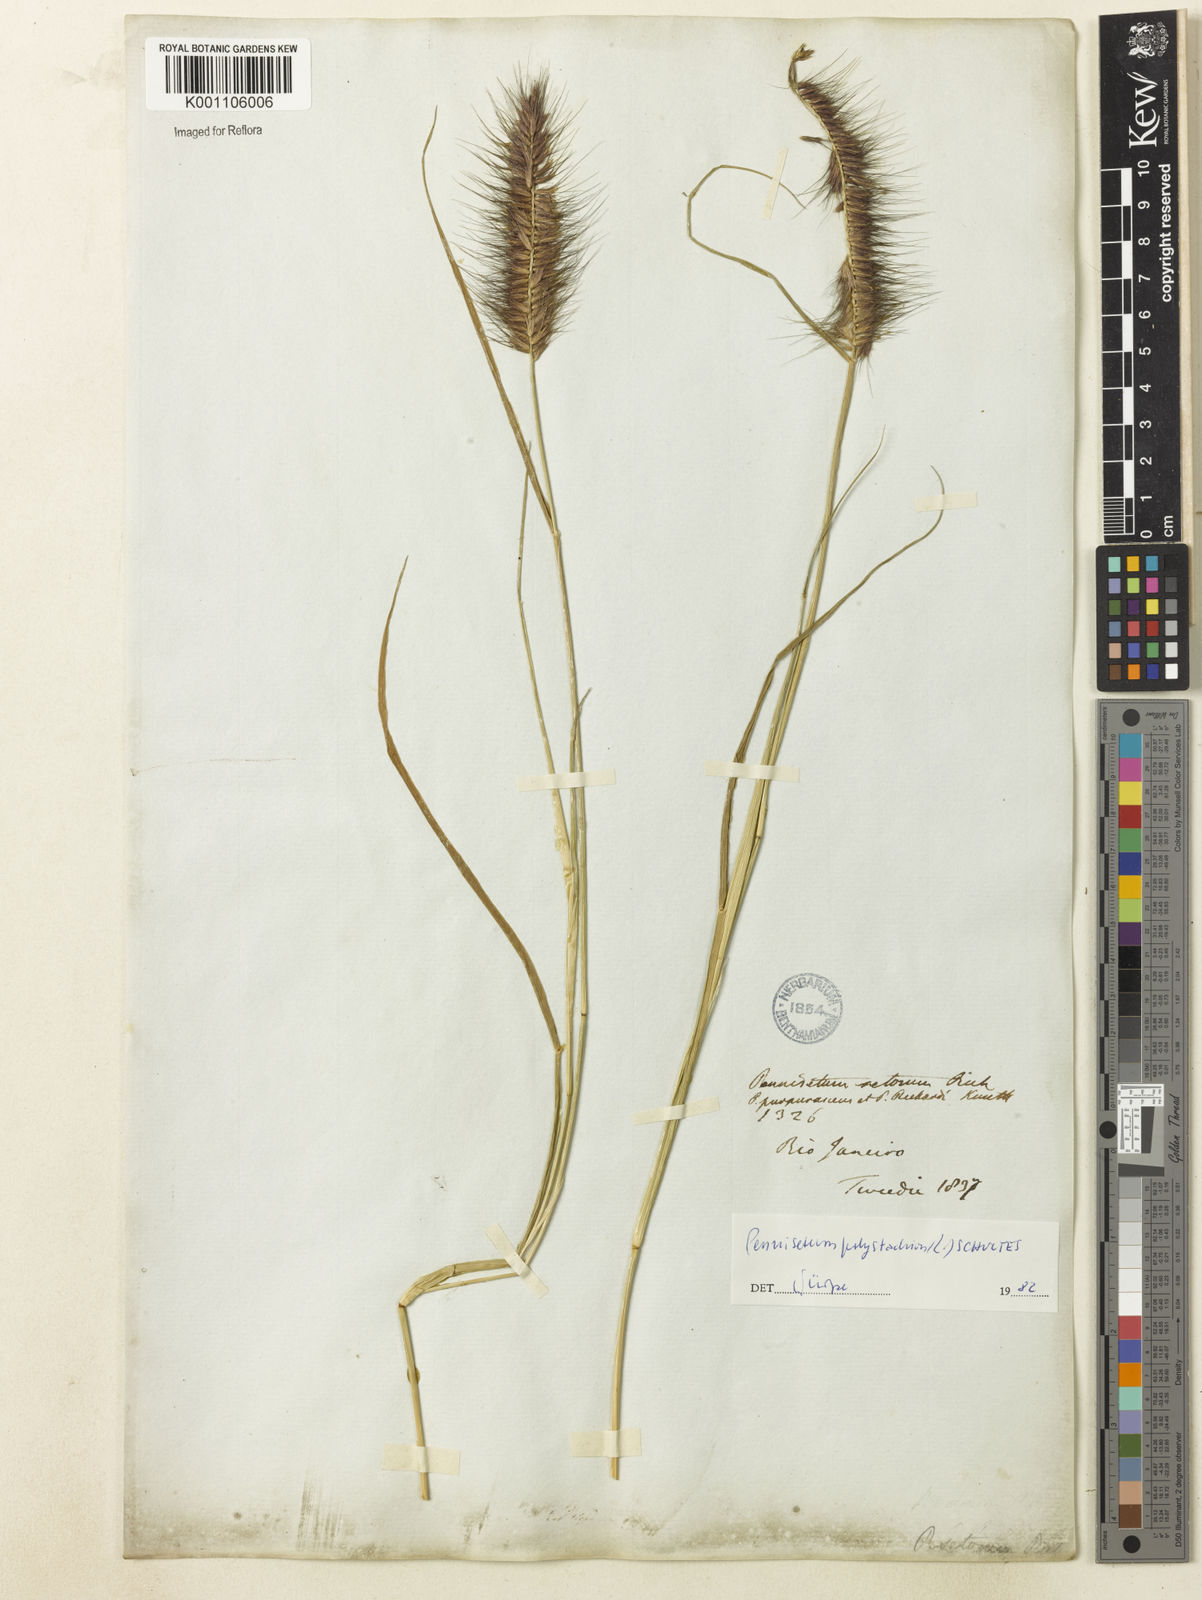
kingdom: Plantae
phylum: Tracheophyta
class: Liliopsida
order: Poales
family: Poaceae
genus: Setaria
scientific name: Setaria parviflora
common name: Knotroot bristle-grass
